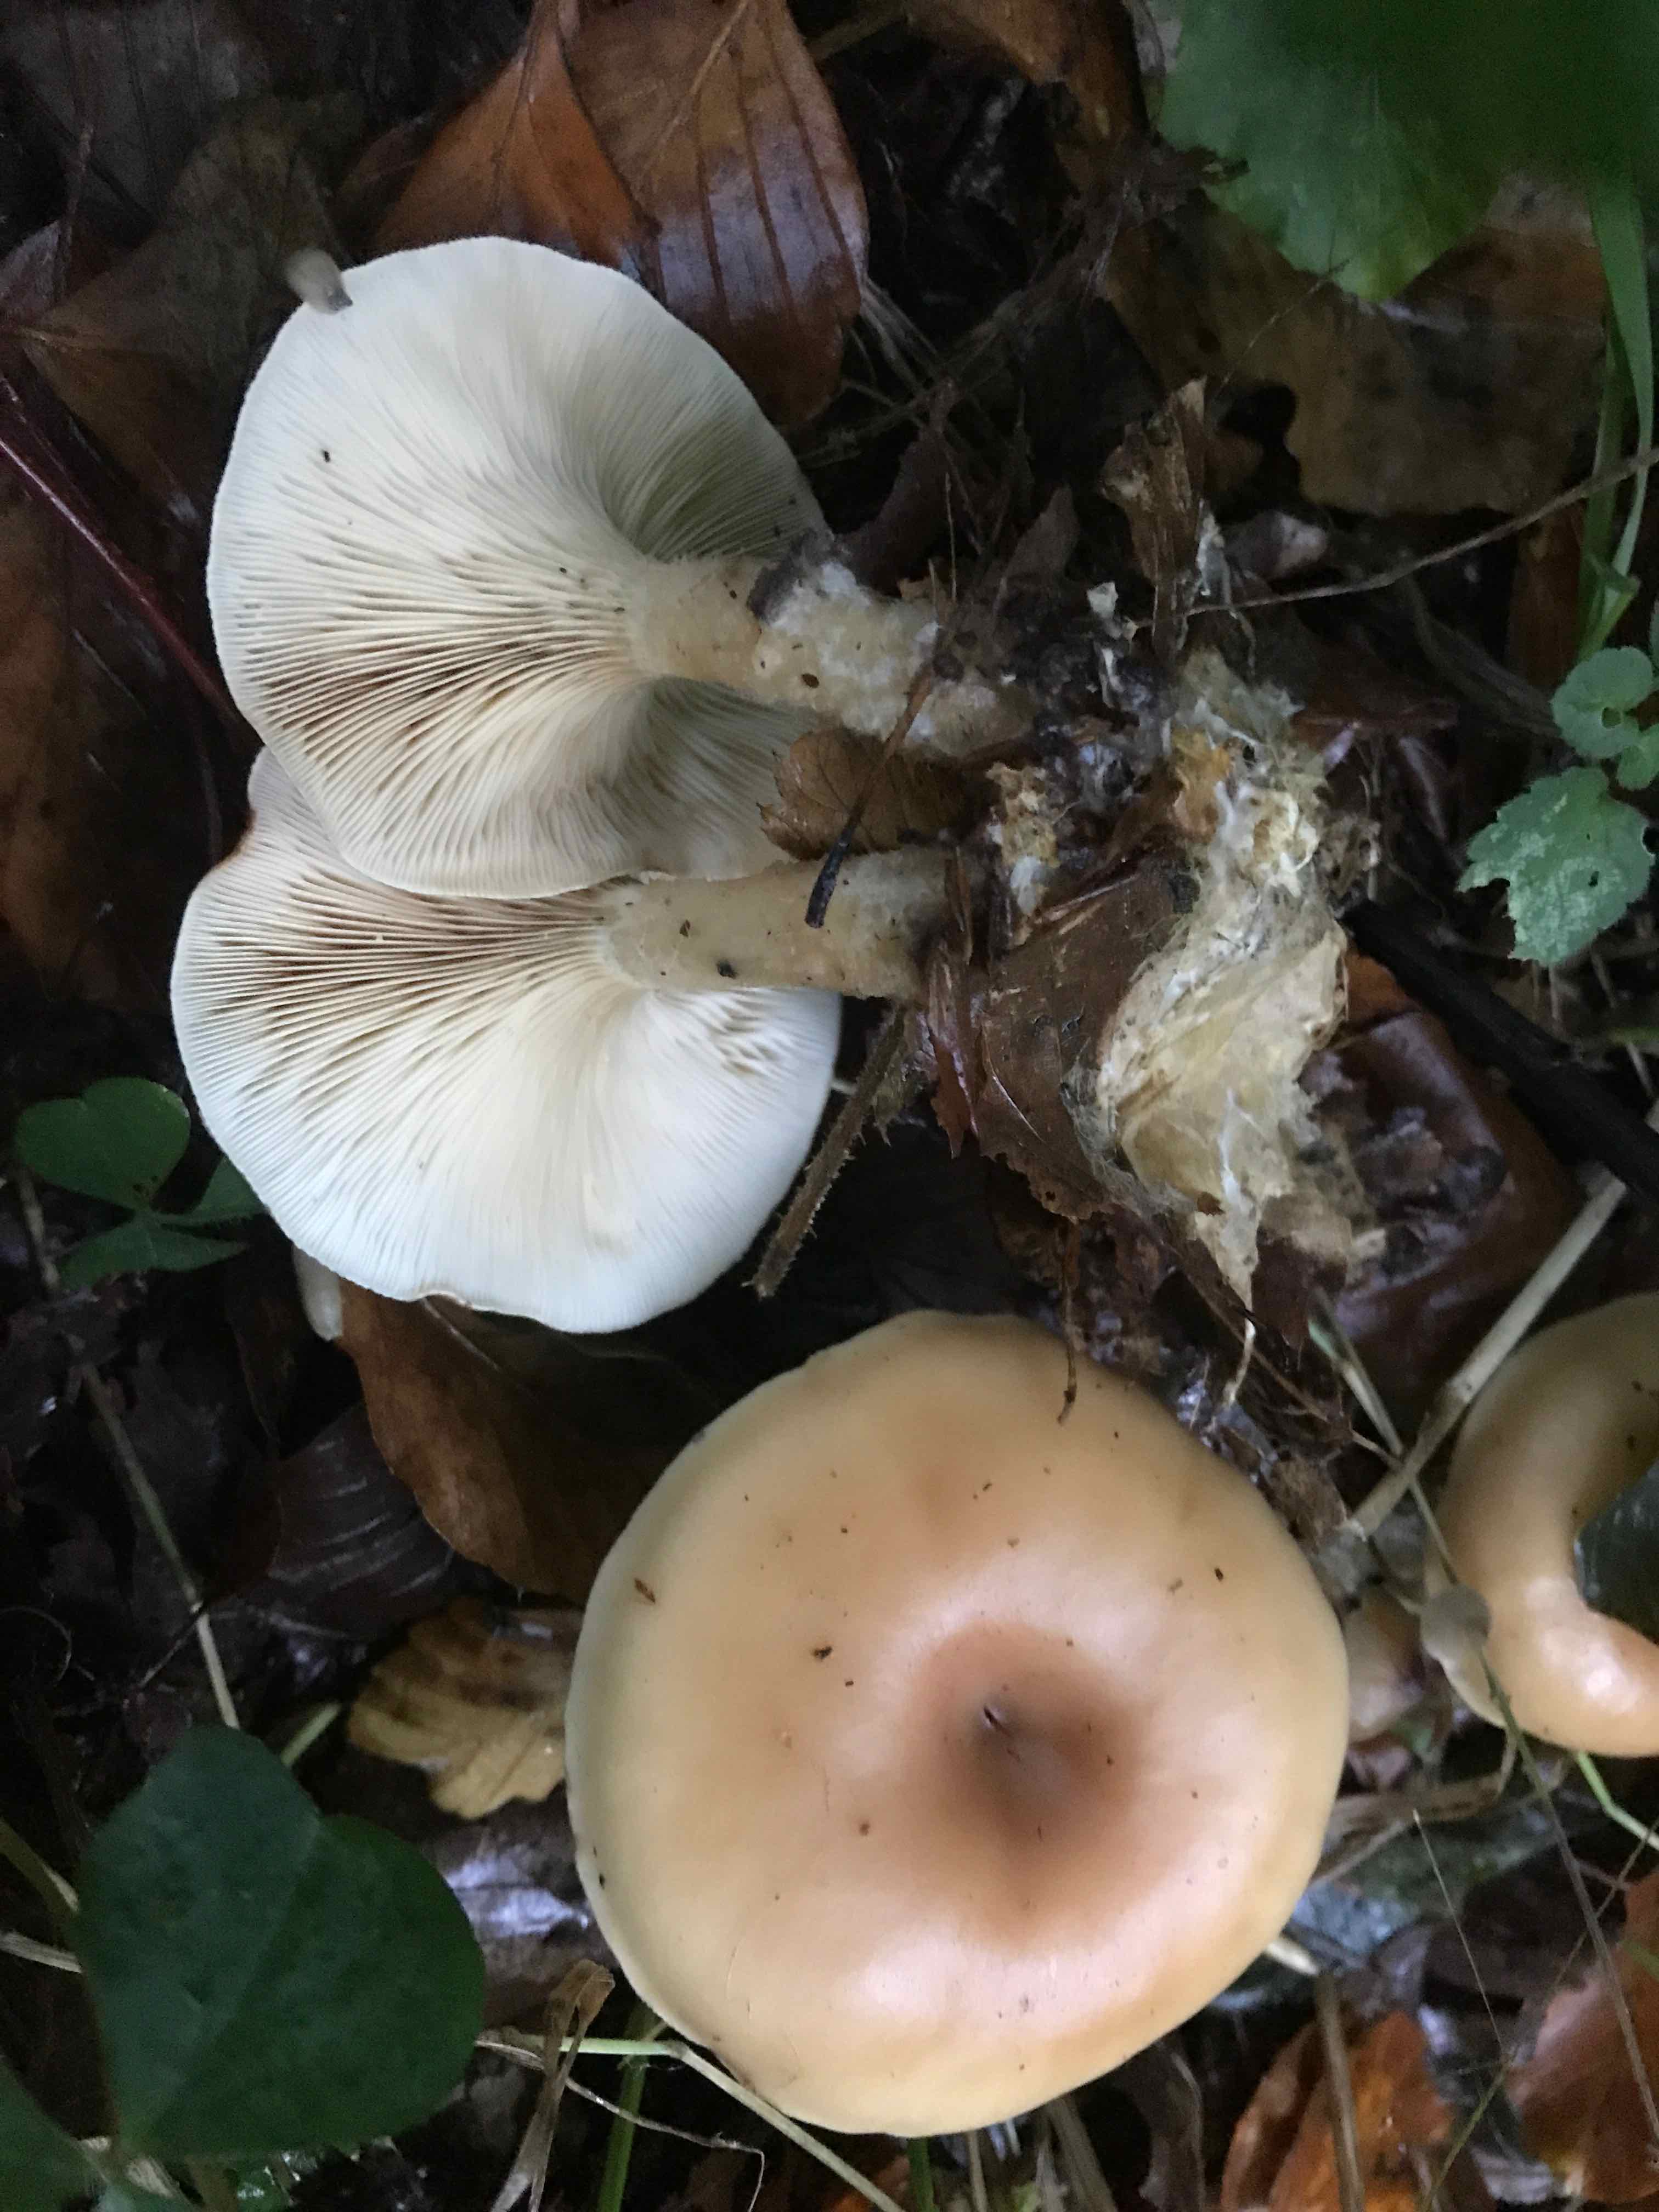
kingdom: Fungi
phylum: Basidiomycota
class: Agaricomycetes
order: Agaricales
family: Tricholomataceae
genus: Paralepista
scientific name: Paralepista flaccida
